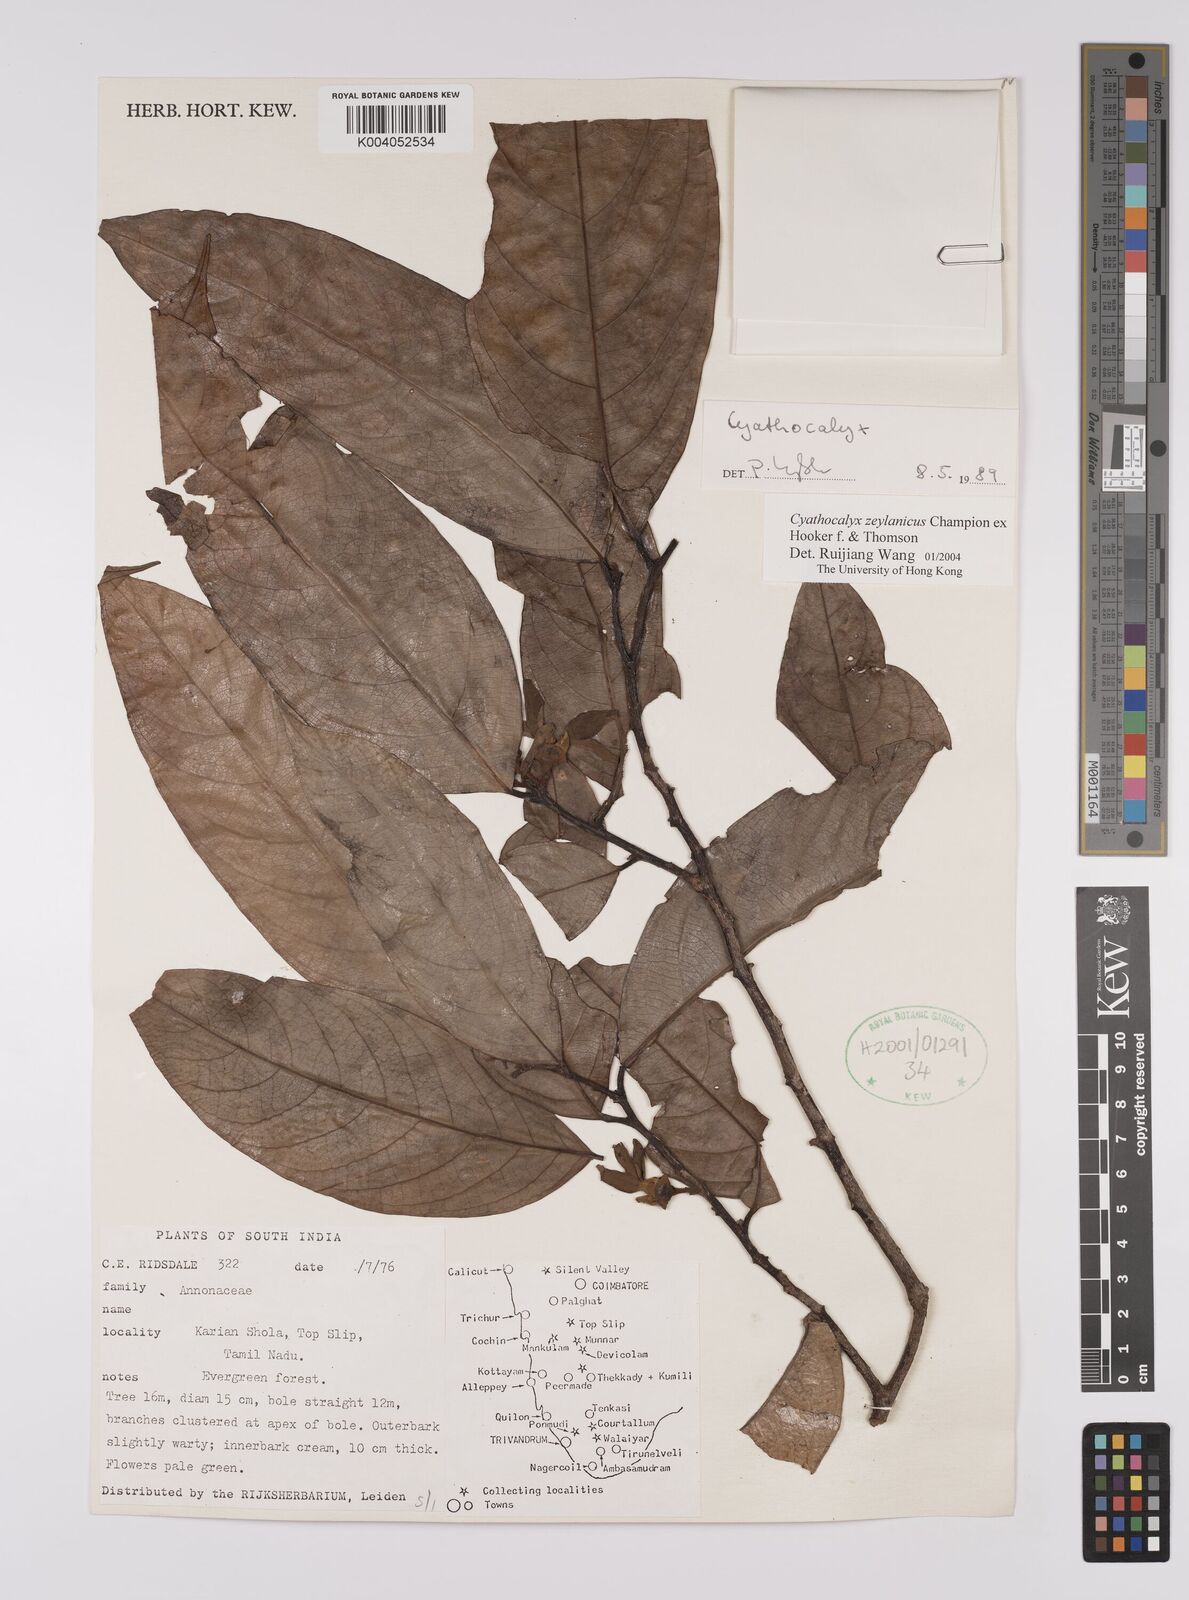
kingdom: Plantae
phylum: Tracheophyta
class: Magnoliopsida
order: Magnoliales
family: Annonaceae
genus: Cyathocalyx
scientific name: Cyathocalyx zeylanicus
